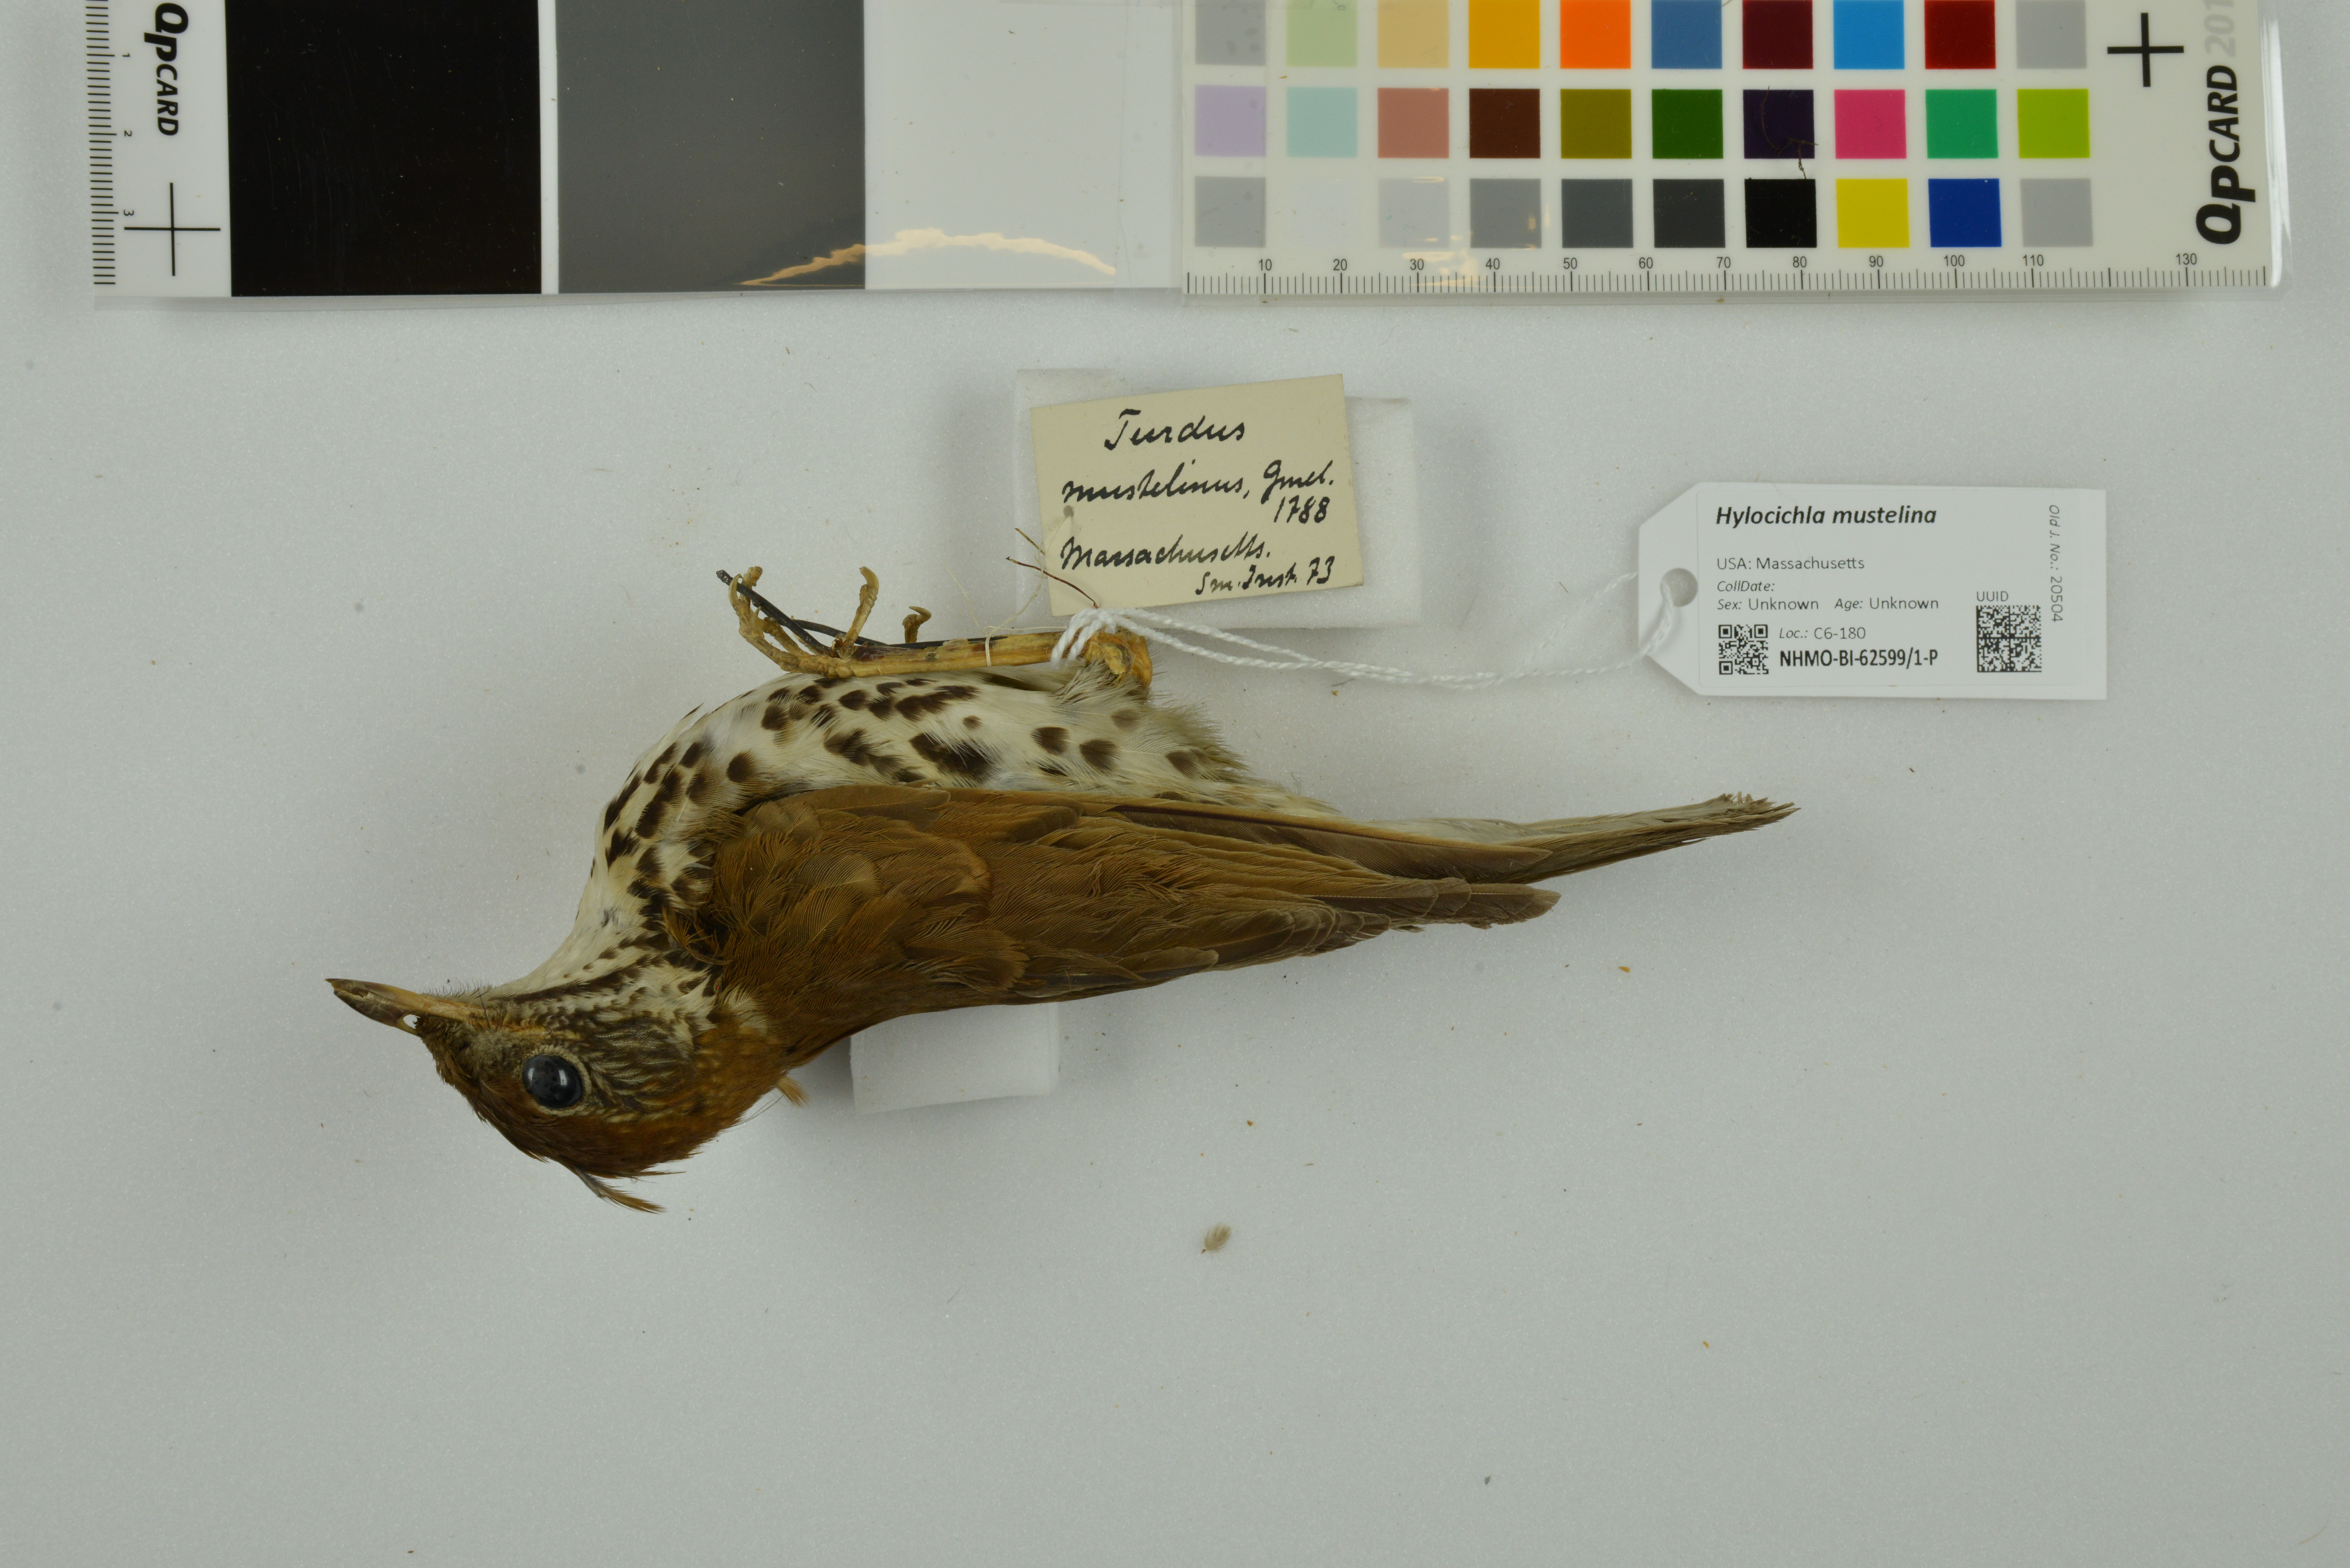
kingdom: Animalia
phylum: Chordata
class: Aves
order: Passeriformes
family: Turdidae
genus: Hylocichla
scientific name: Hylocichla mustelina
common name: Wood thrush
